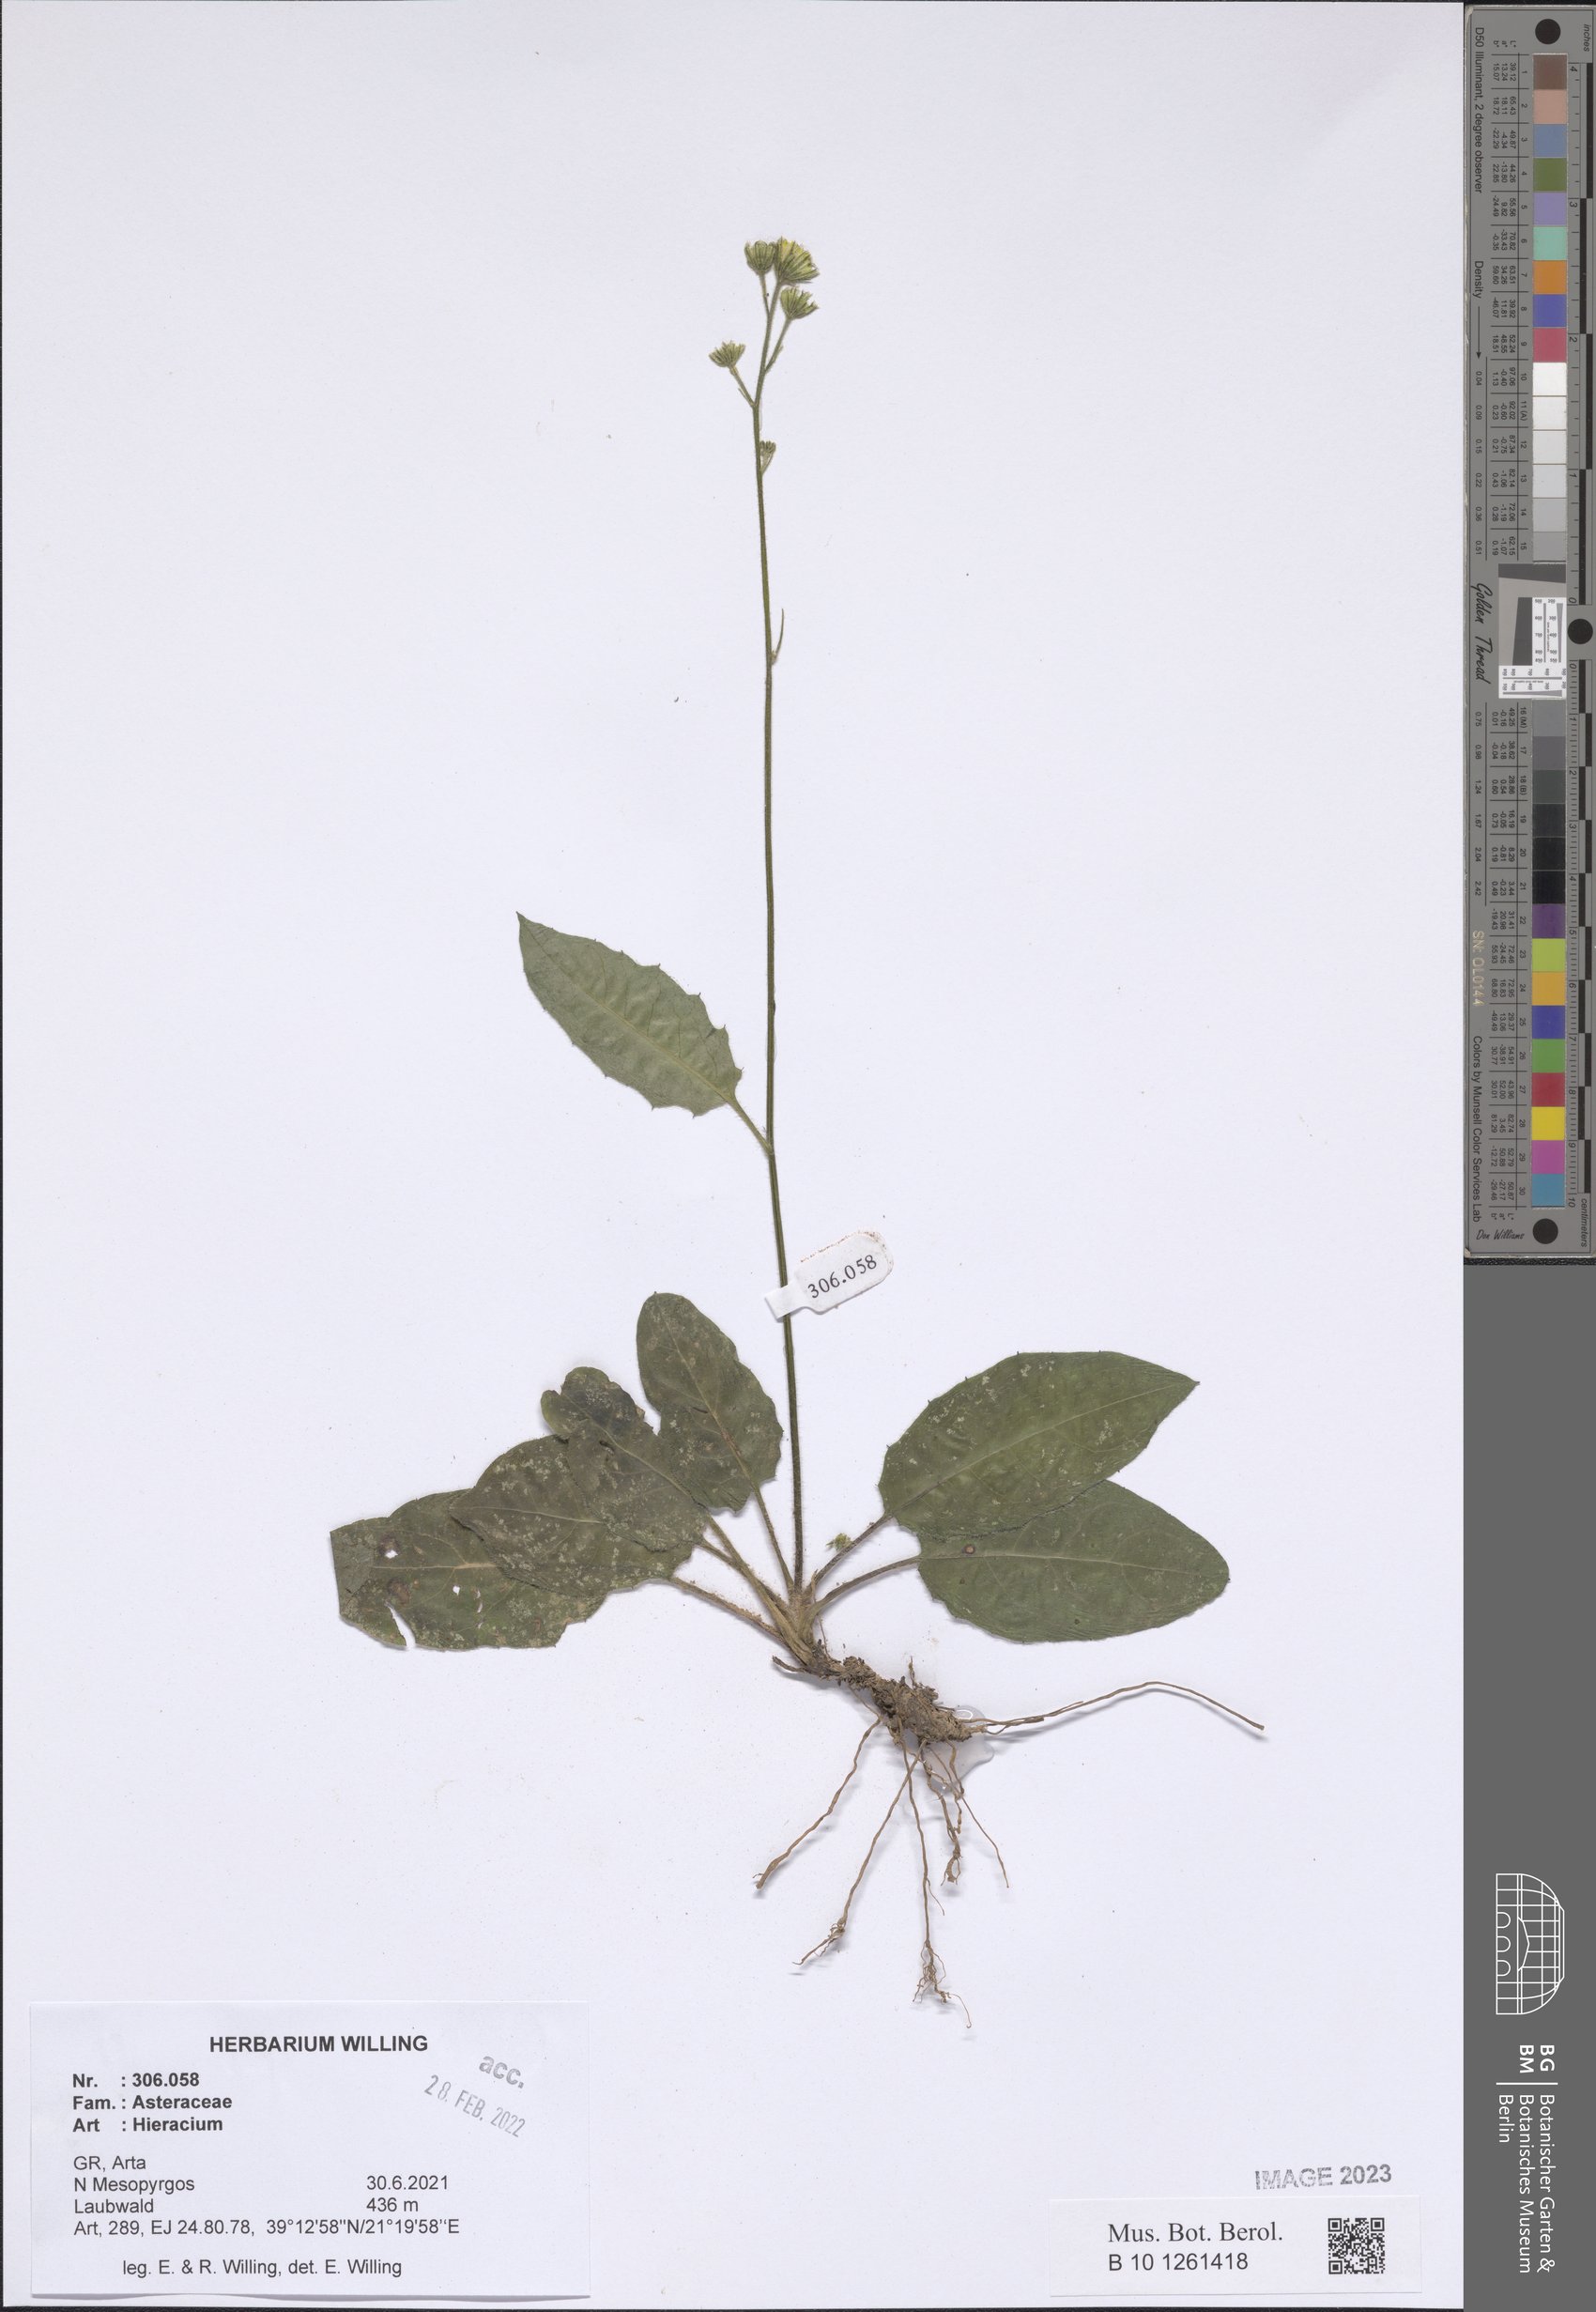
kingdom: Plantae
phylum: Tracheophyta
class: Magnoliopsida
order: Asterales
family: Asteraceae
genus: Hieracium
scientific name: Hieracium
